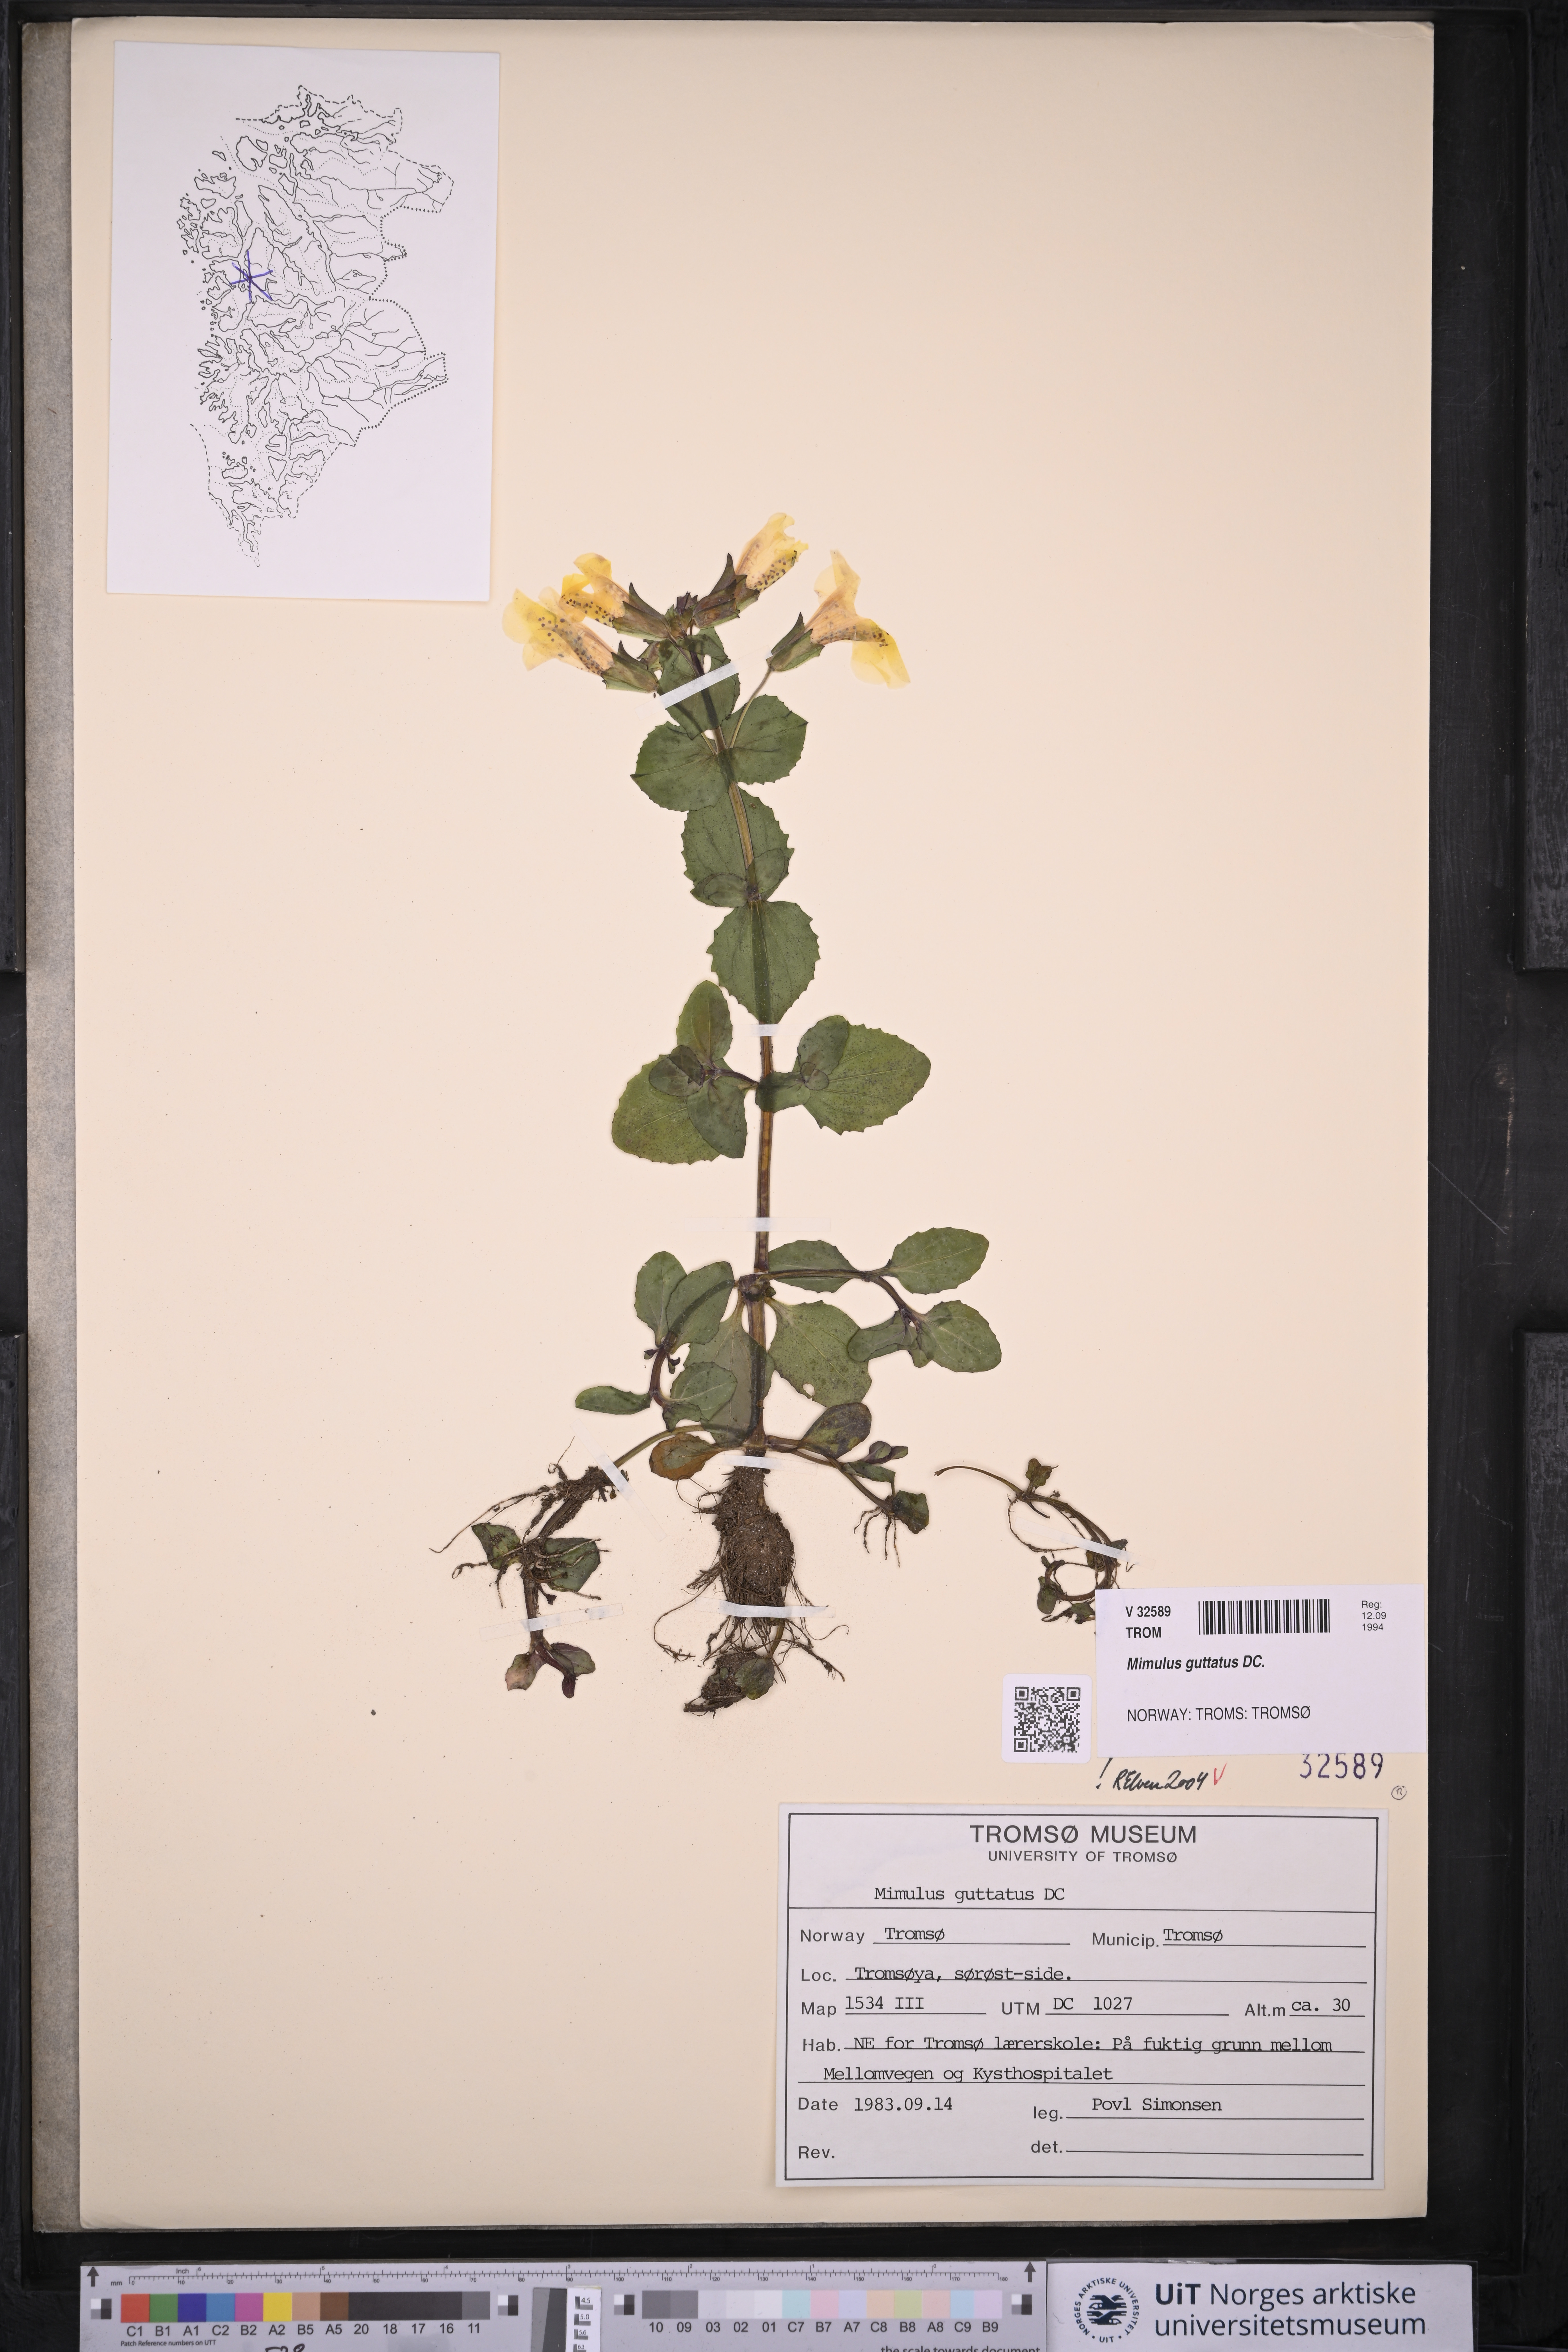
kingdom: Plantae
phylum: Tracheophyta
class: Magnoliopsida
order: Lamiales
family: Phrymaceae
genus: Erythranthe
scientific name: Erythranthe guttata
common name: Monkeyflower
